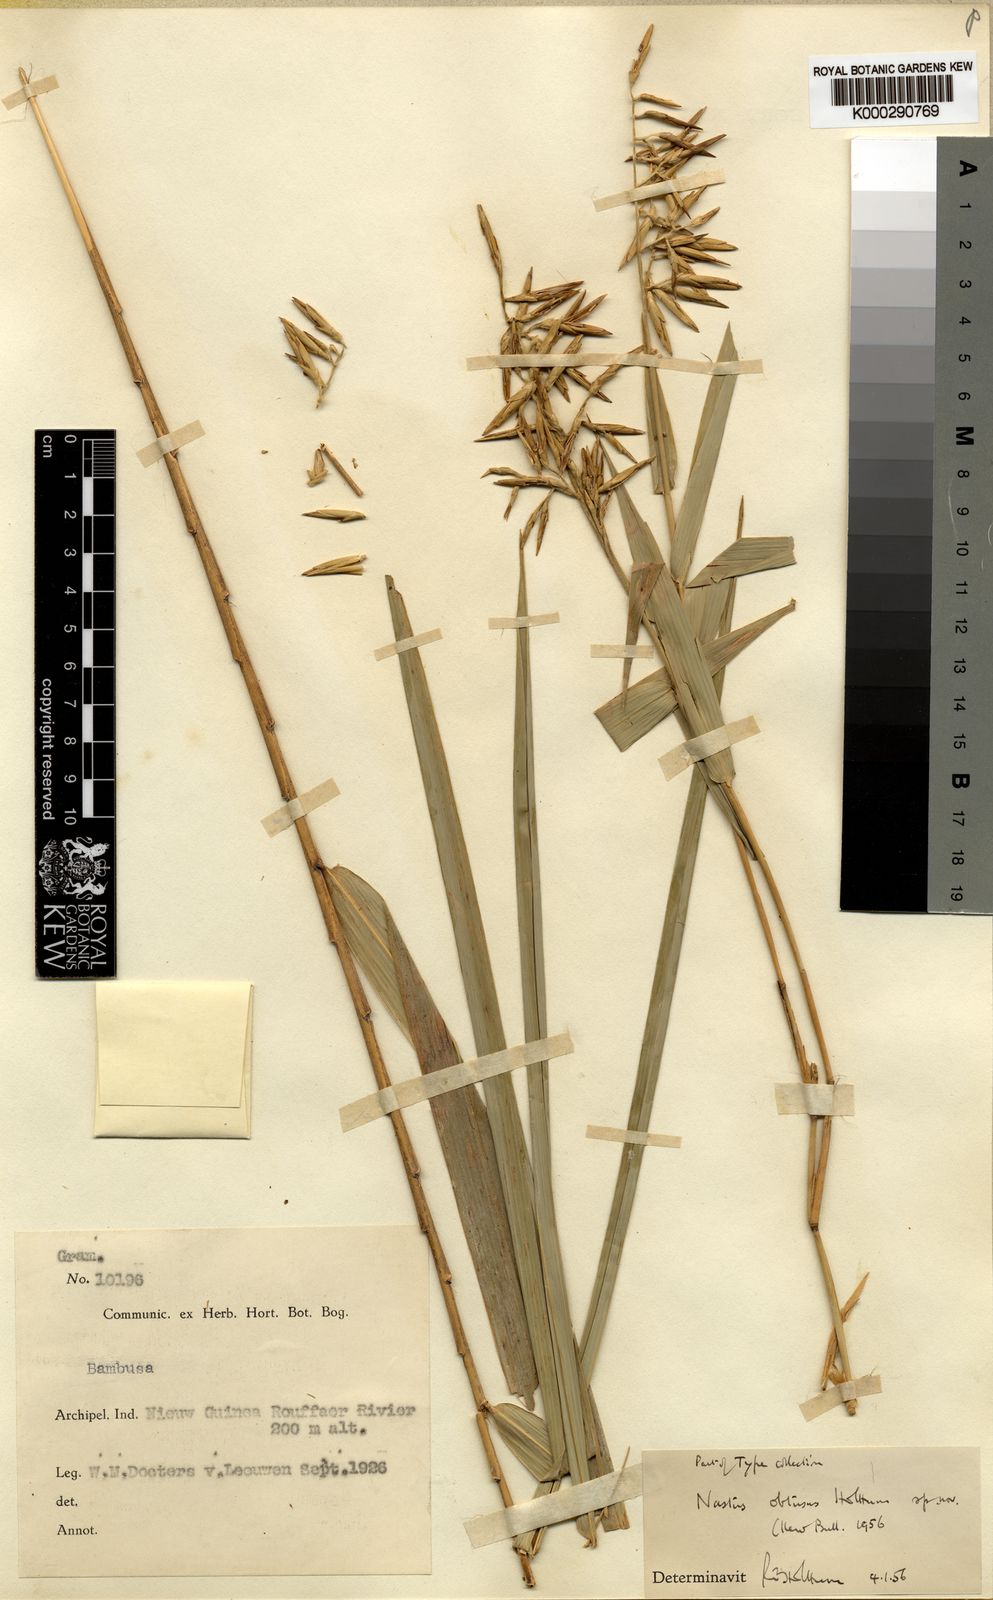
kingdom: Plantae
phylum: Tracheophyta
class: Liliopsida
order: Poales
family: Poaceae
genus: Chloothamnus
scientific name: Chloothamnus obtusus
